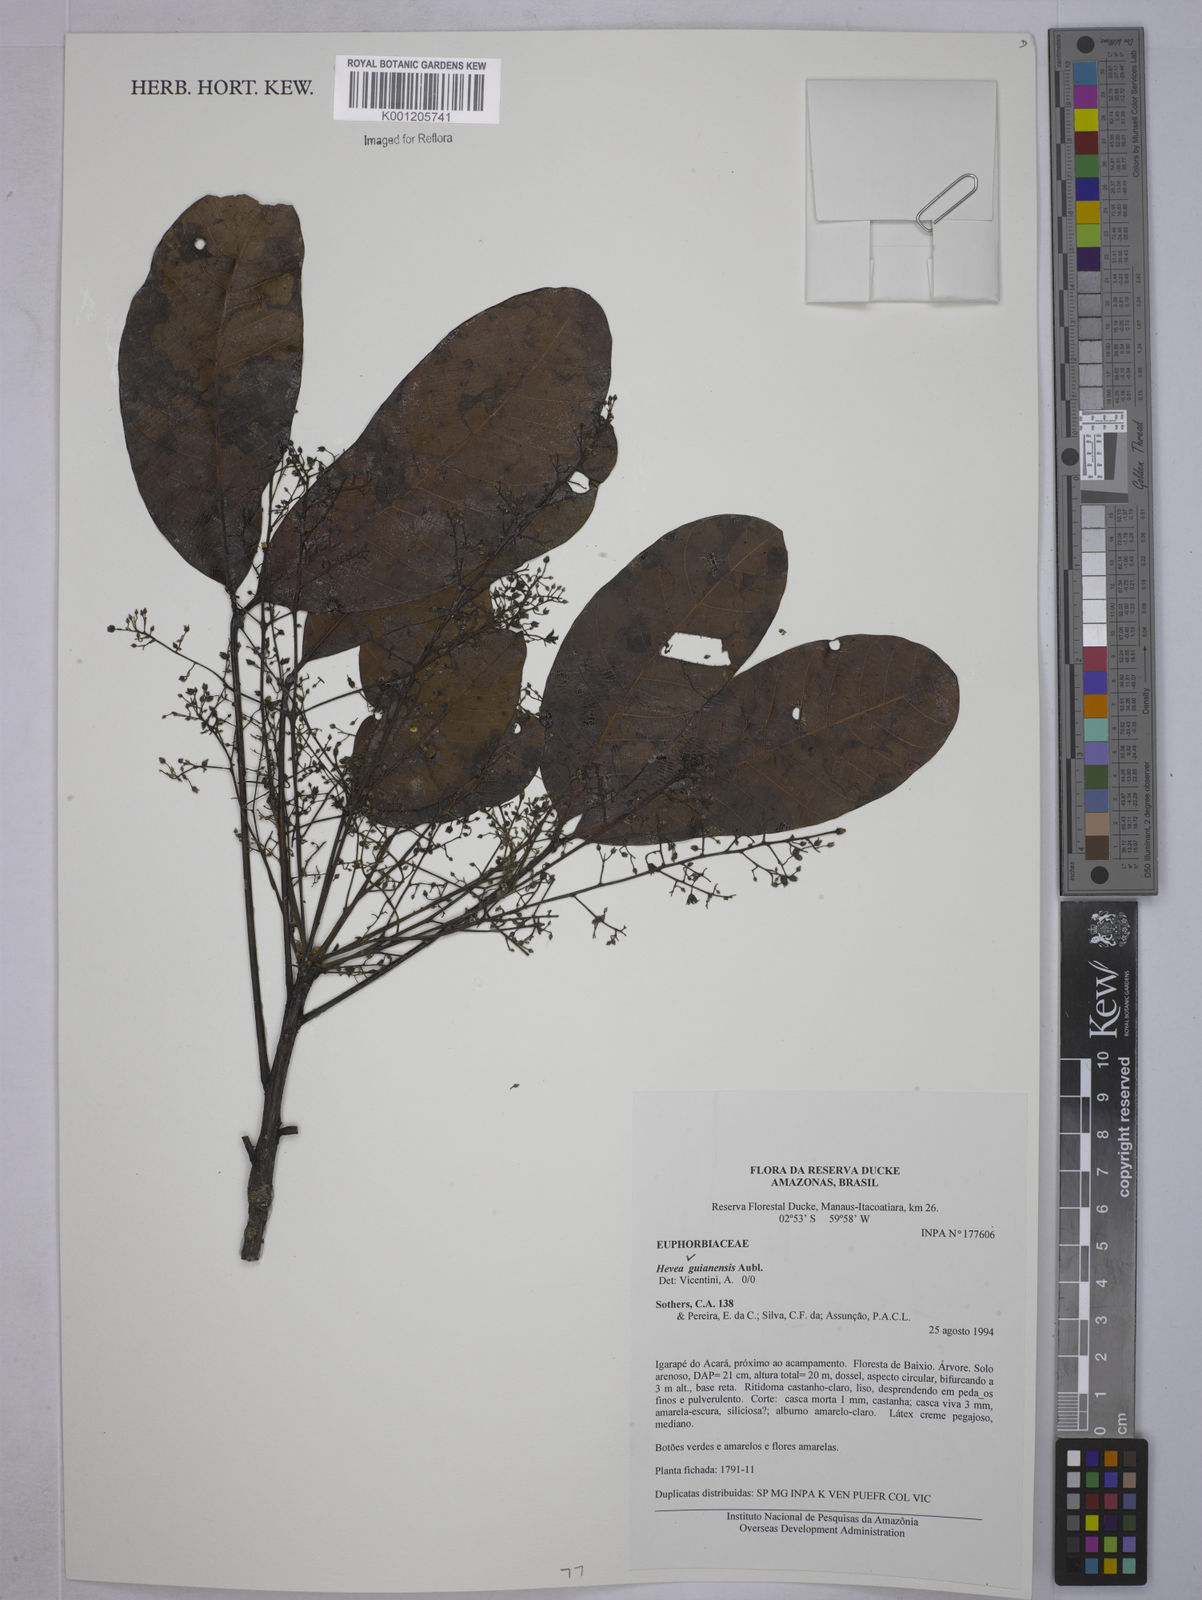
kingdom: Plantae
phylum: Tracheophyta
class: Magnoliopsida
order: Malpighiales
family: Euphorbiaceae
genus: Hevea
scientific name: Hevea guianensis
